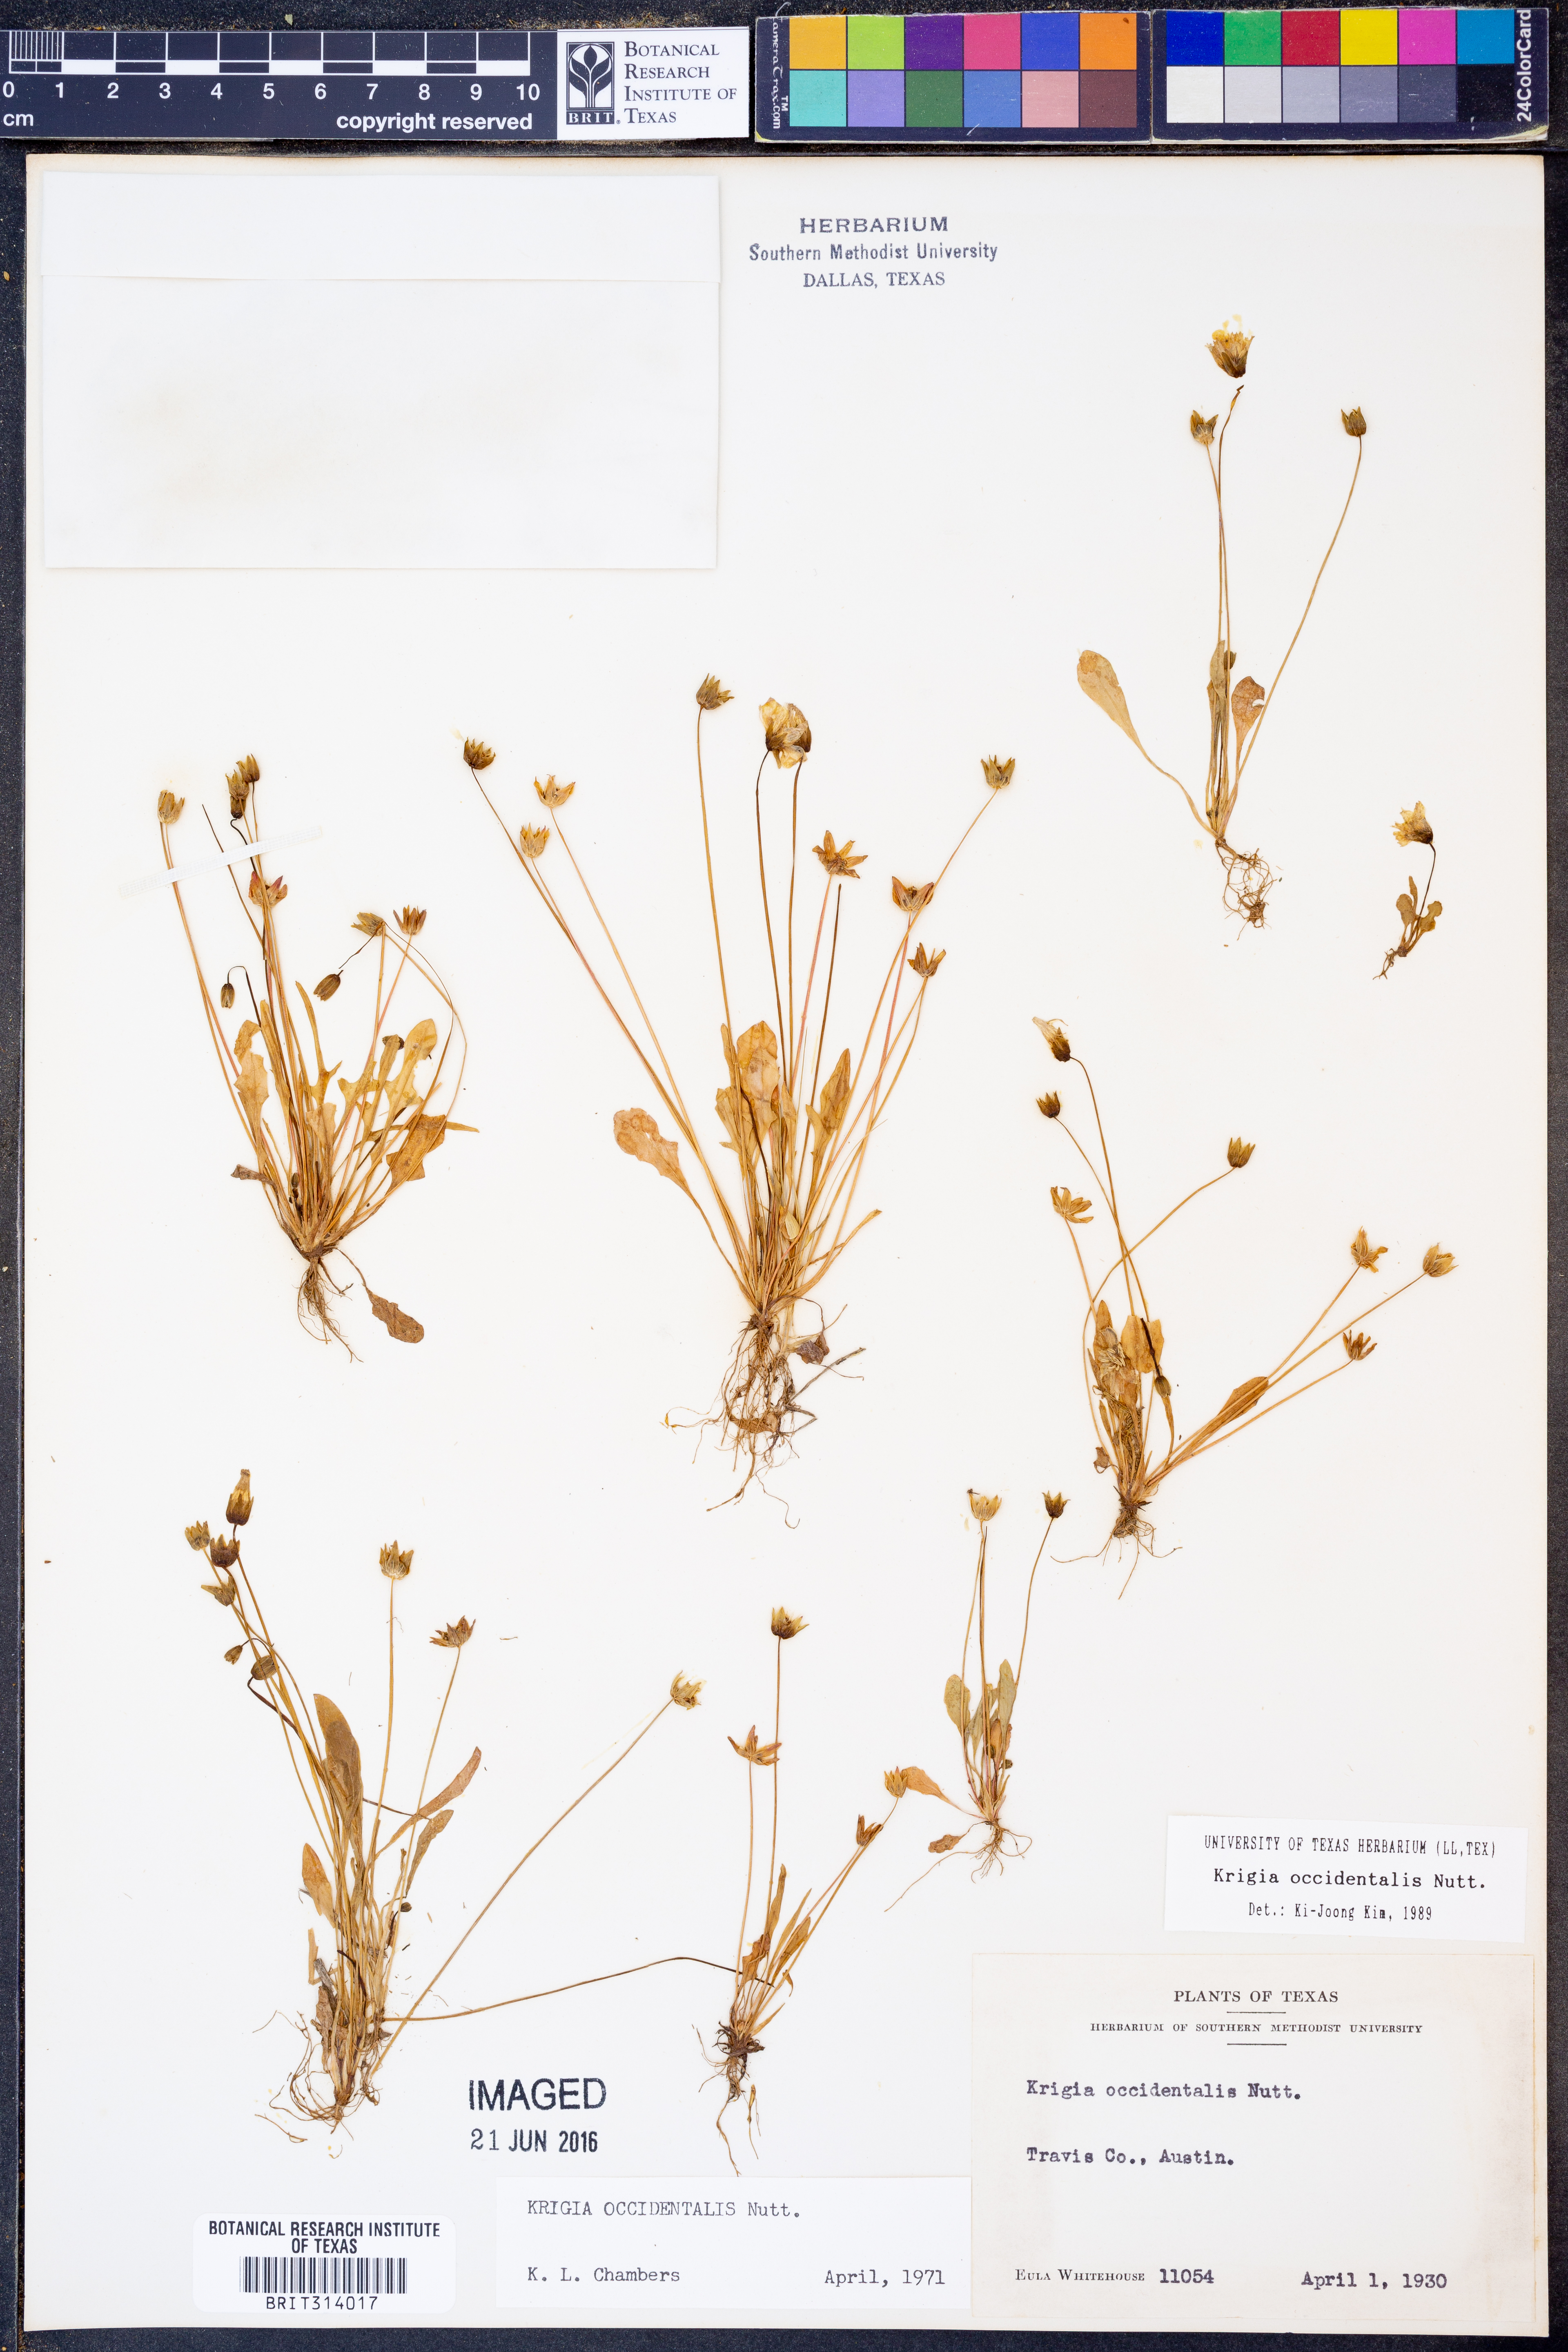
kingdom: Plantae
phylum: Tracheophyta
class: Magnoliopsida
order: Asterales
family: Asteraceae
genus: Krigia
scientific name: Krigia occidentalis
